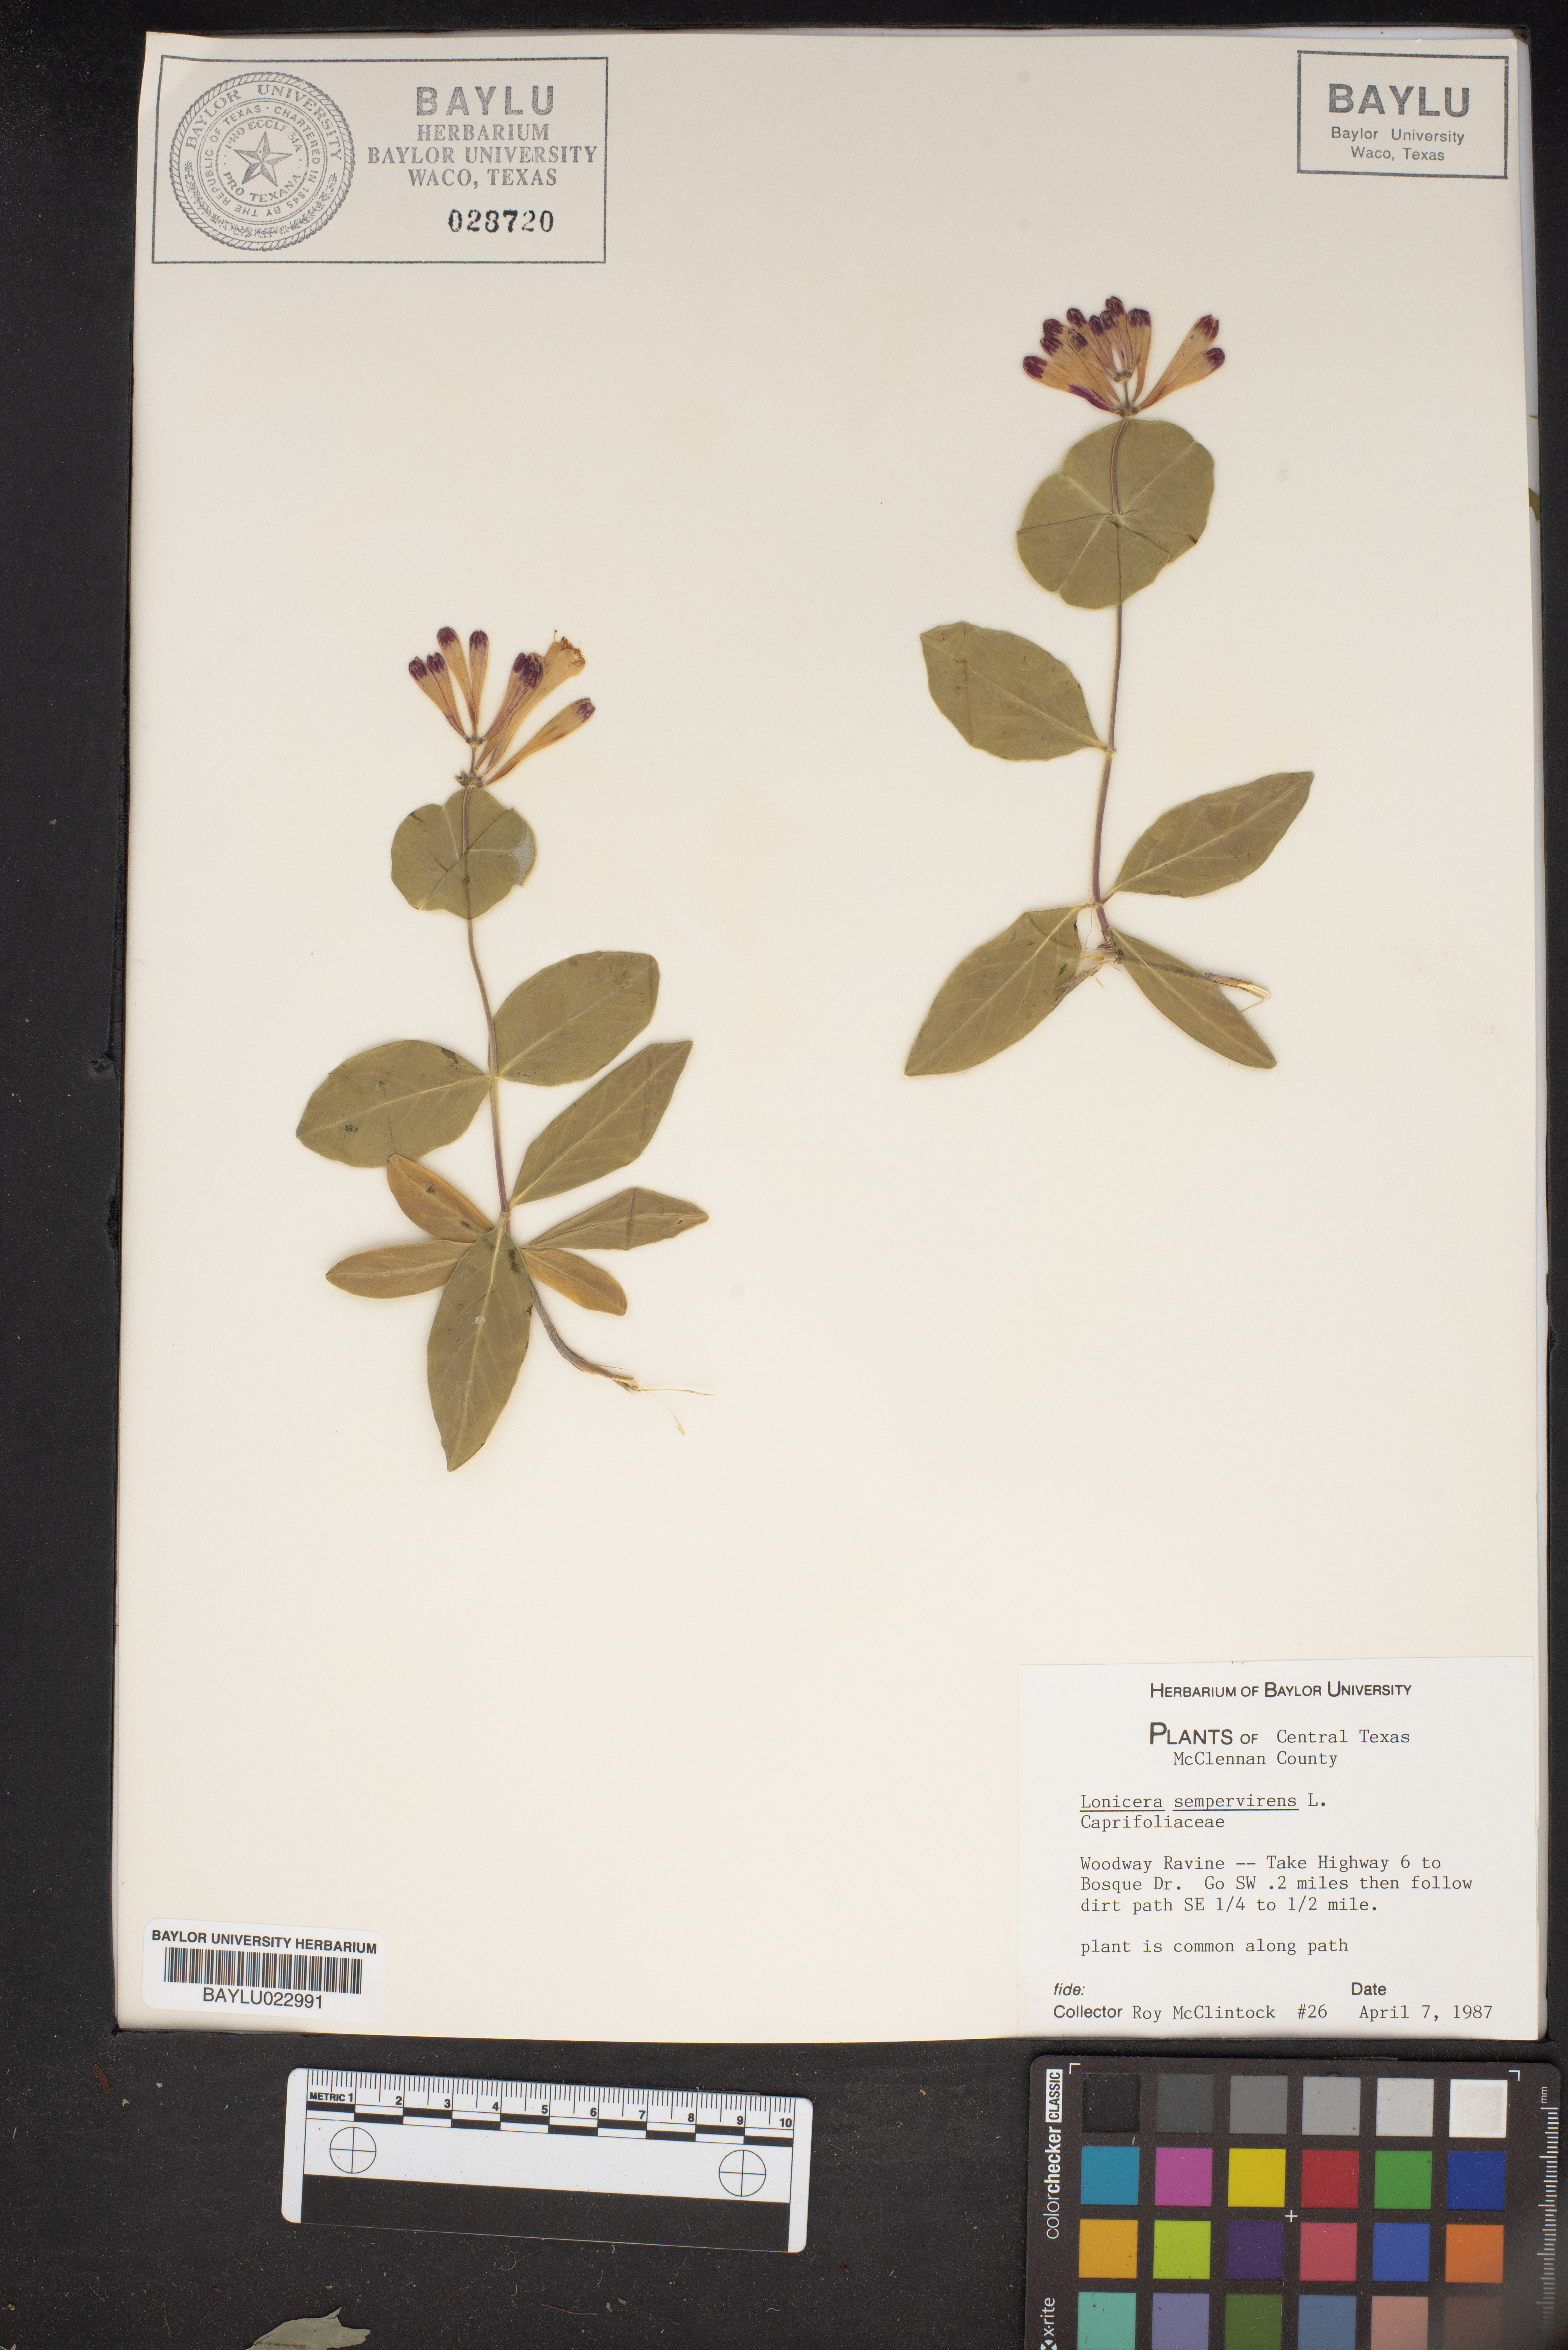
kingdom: Plantae
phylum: Tracheophyta
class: Magnoliopsida
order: Dipsacales
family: Caprifoliaceae
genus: Lonicera
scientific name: Lonicera sempervirens
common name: Coral honeysuckle
